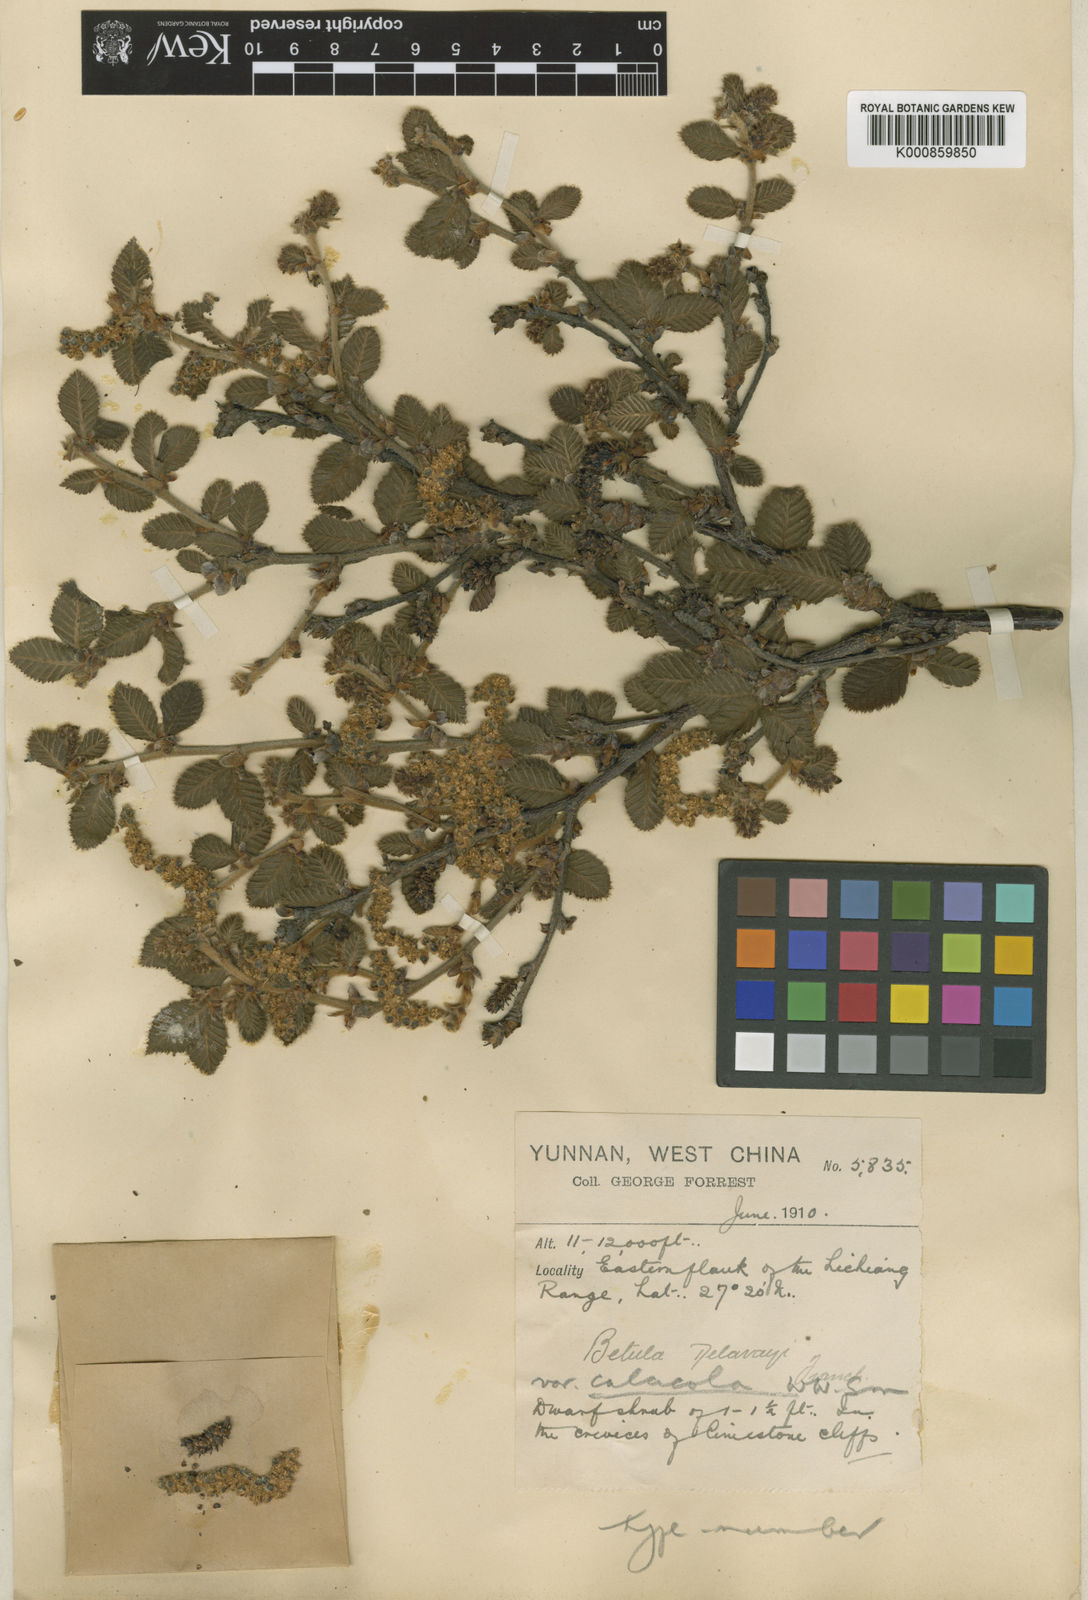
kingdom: Plantae
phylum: Tracheophyta
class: Magnoliopsida
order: Fagales
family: Betulaceae
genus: Betula
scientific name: Betula delavayi
